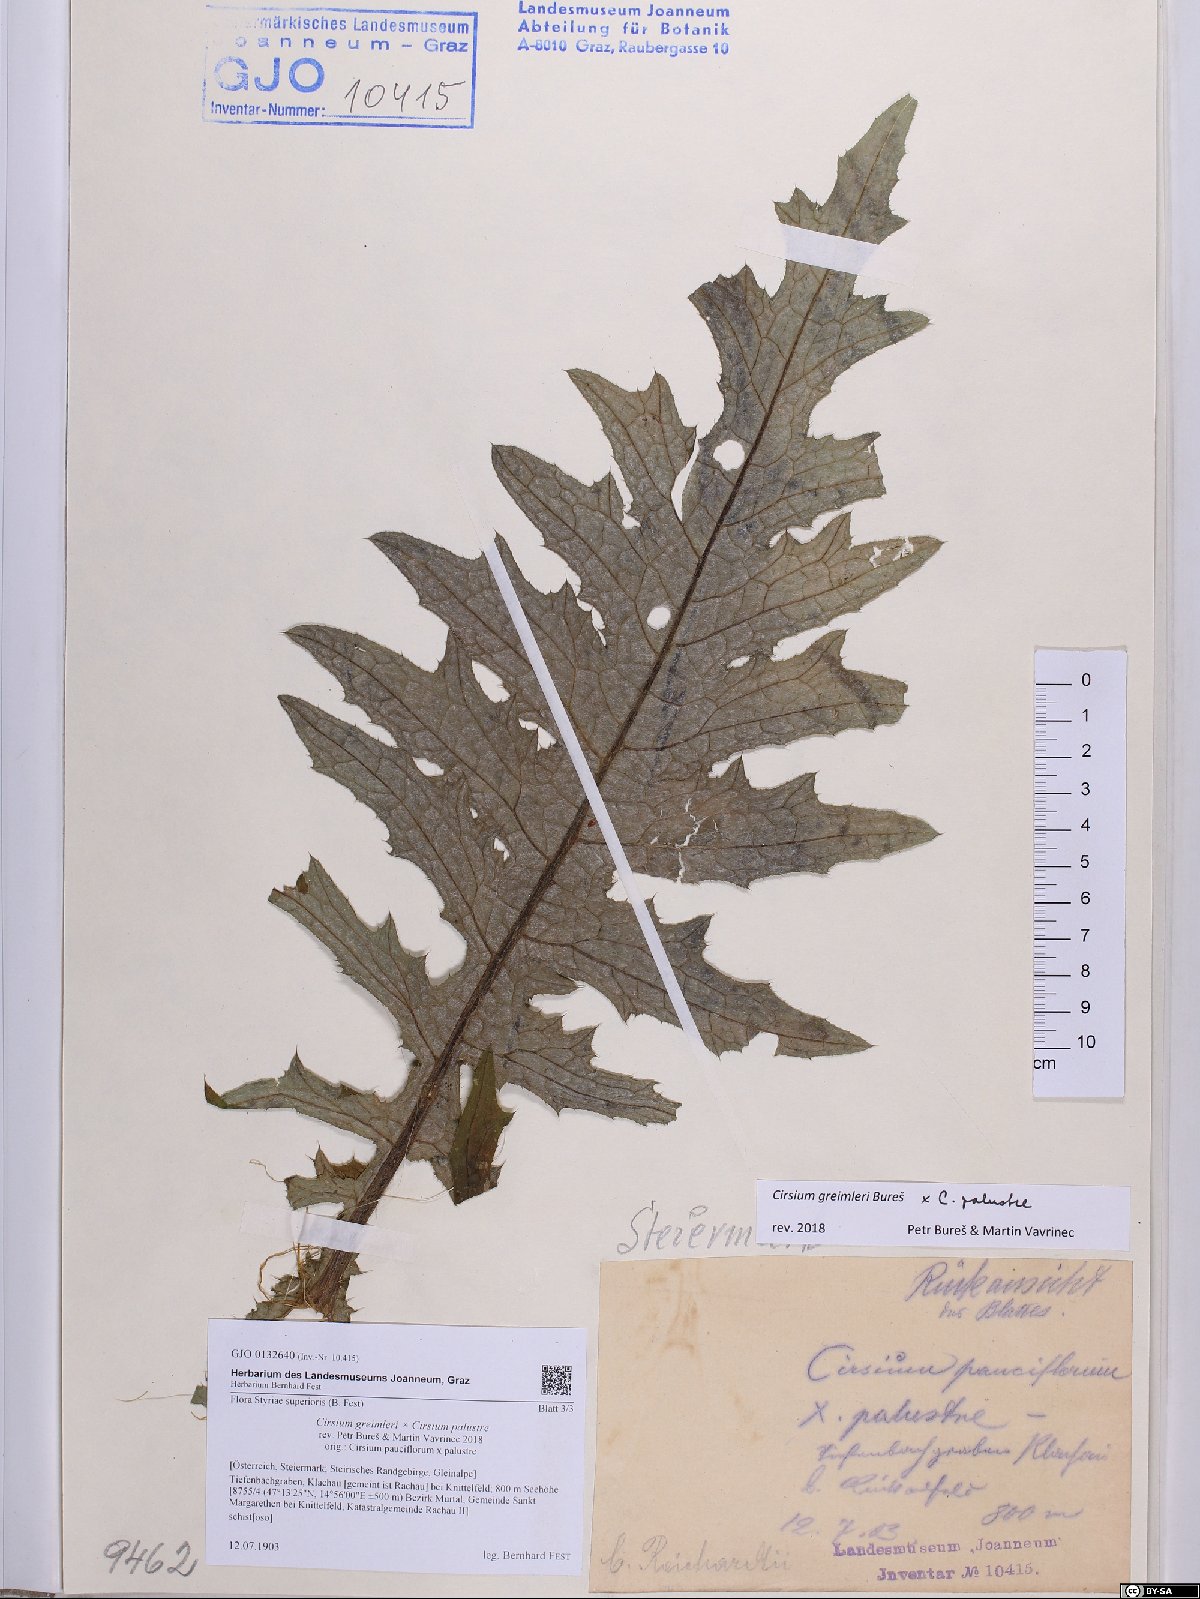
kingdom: Plantae
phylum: Tracheophyta
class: Magnoliopsida
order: Asterales
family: Asteraceae
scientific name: Asteraceae
